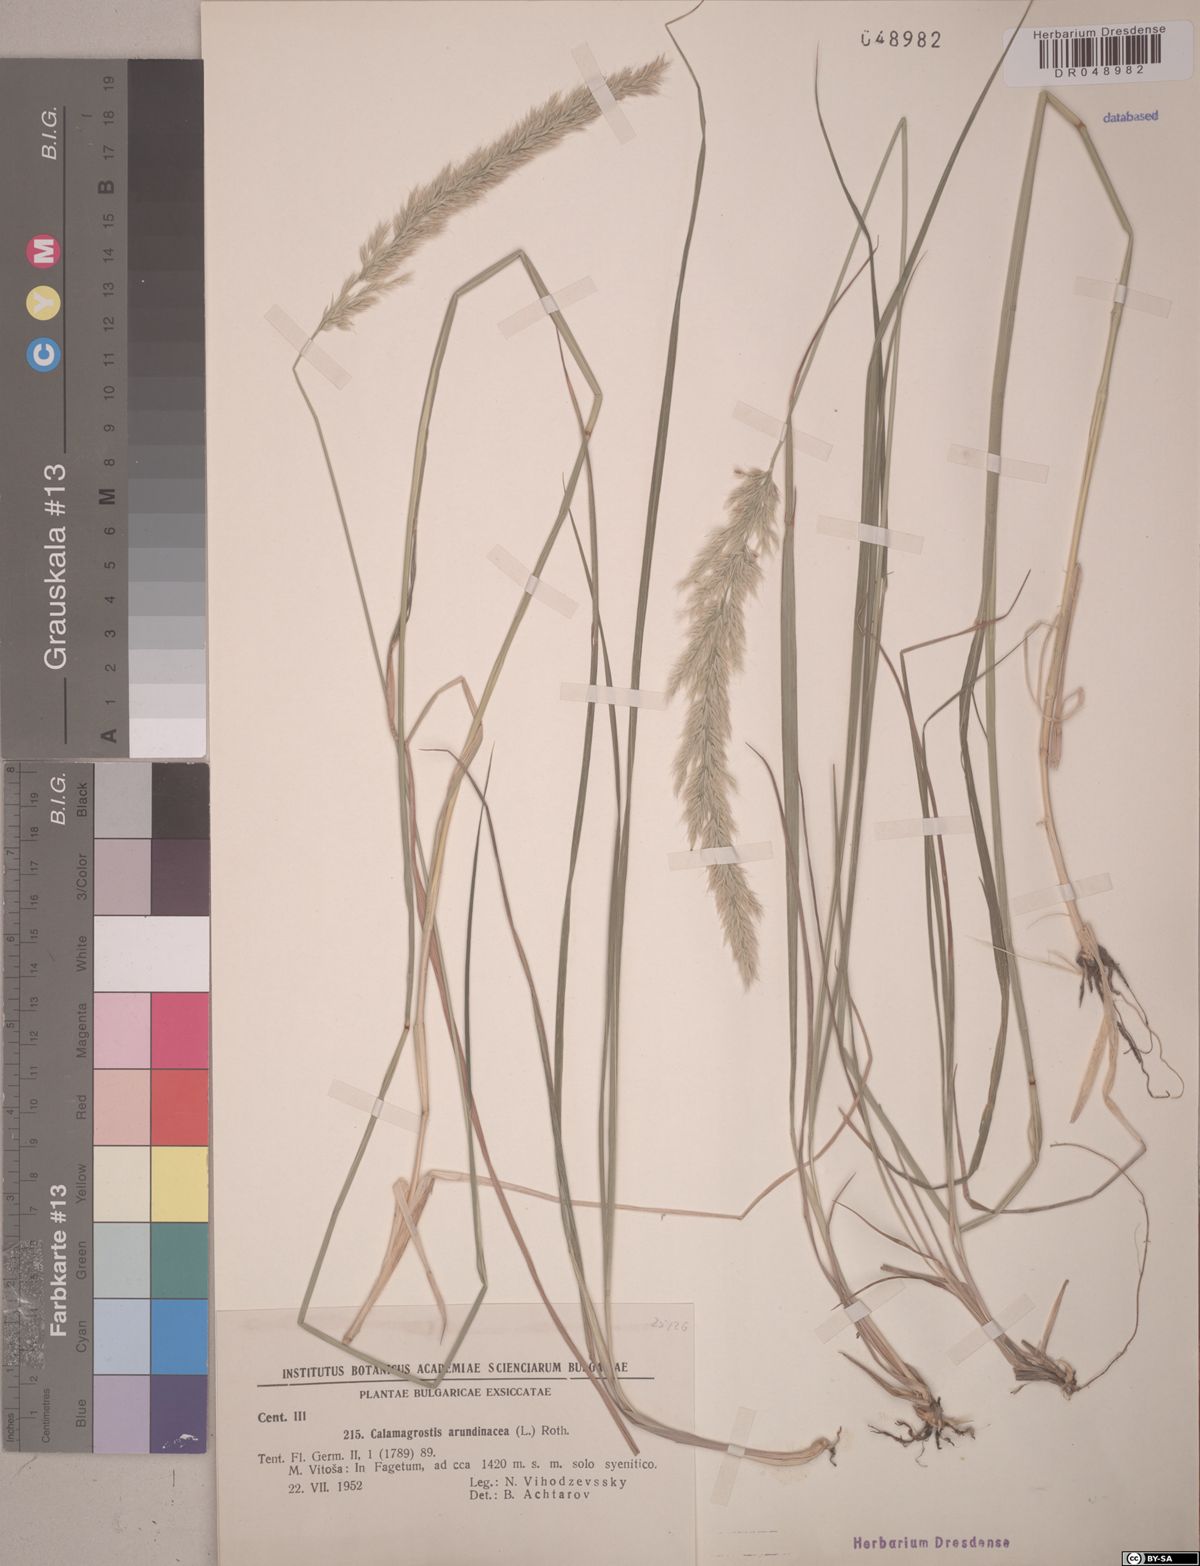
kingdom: Plantae
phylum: Tracheophyta
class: Liliopsida
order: Poales
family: Poaceae
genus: Calamagrostis
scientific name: Calamagrostis arundinacea
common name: Metskastik
